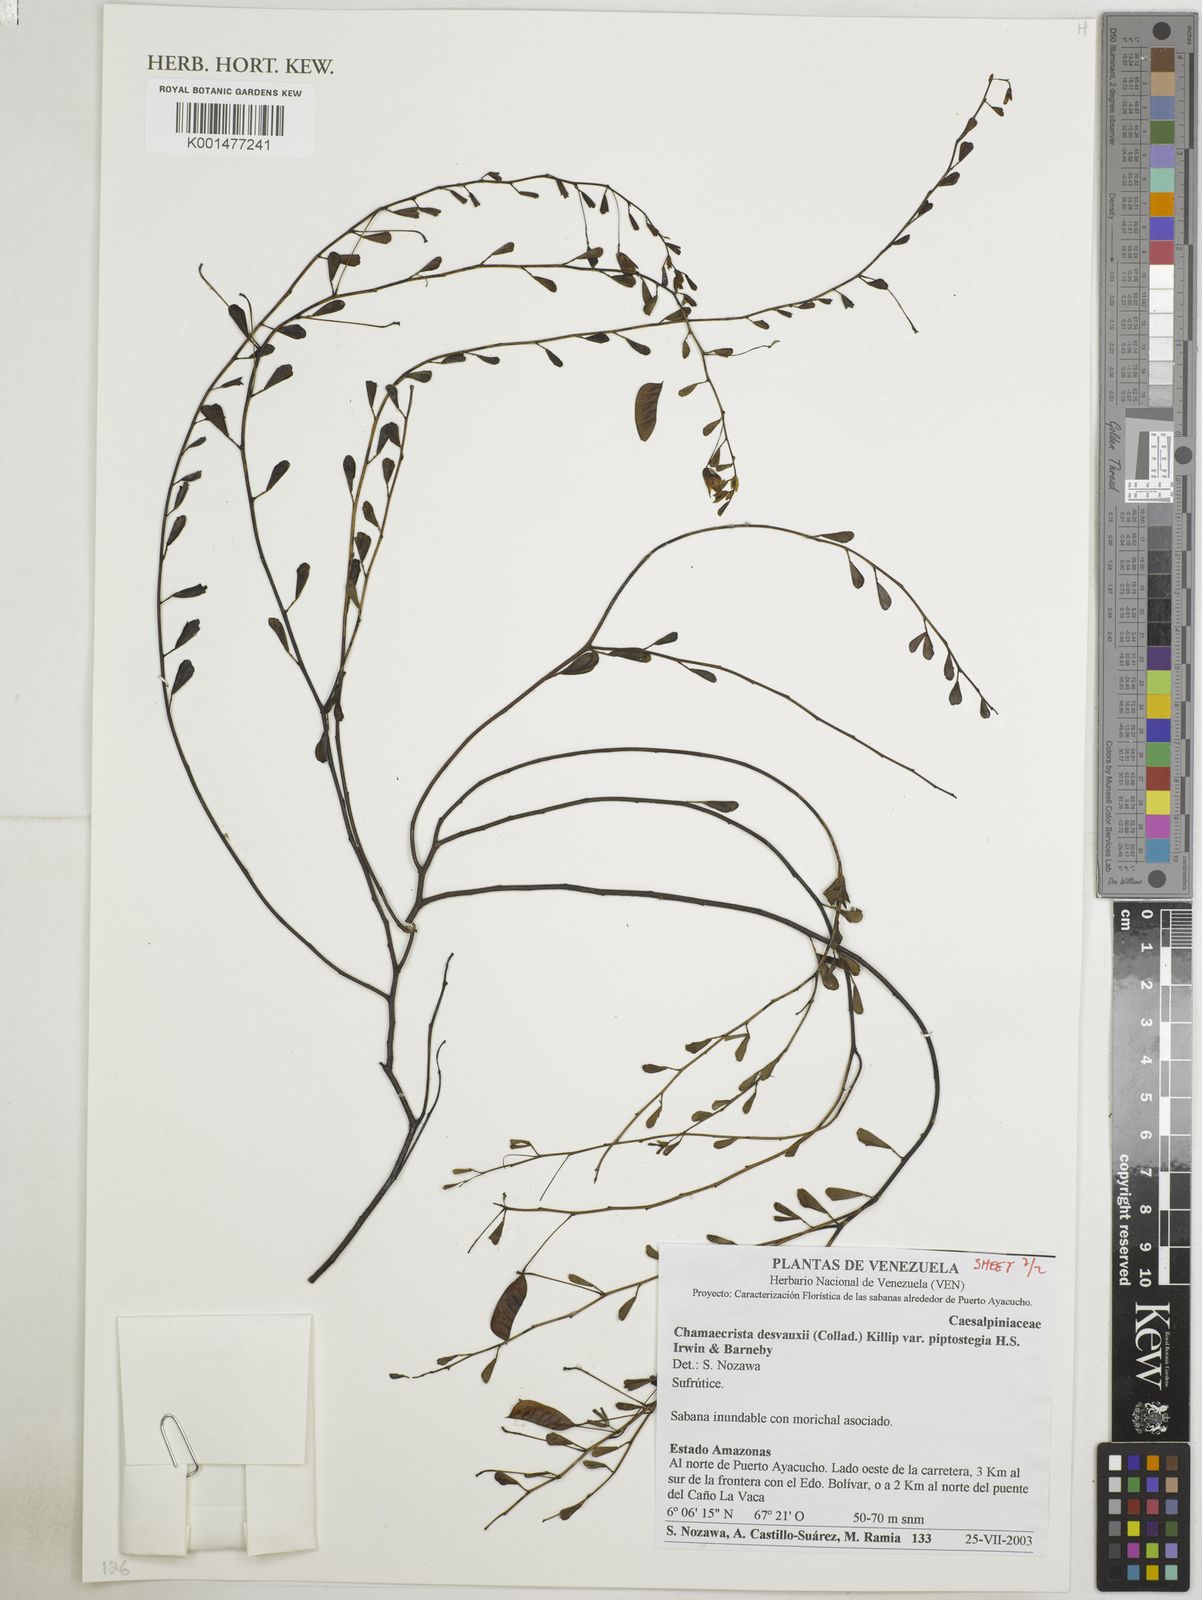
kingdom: Plantae
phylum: Tracheophyta
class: Magnoliopsida
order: Fabales
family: Fabaceae
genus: Chamaecrista
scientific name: Chamaecrista desvauxii
